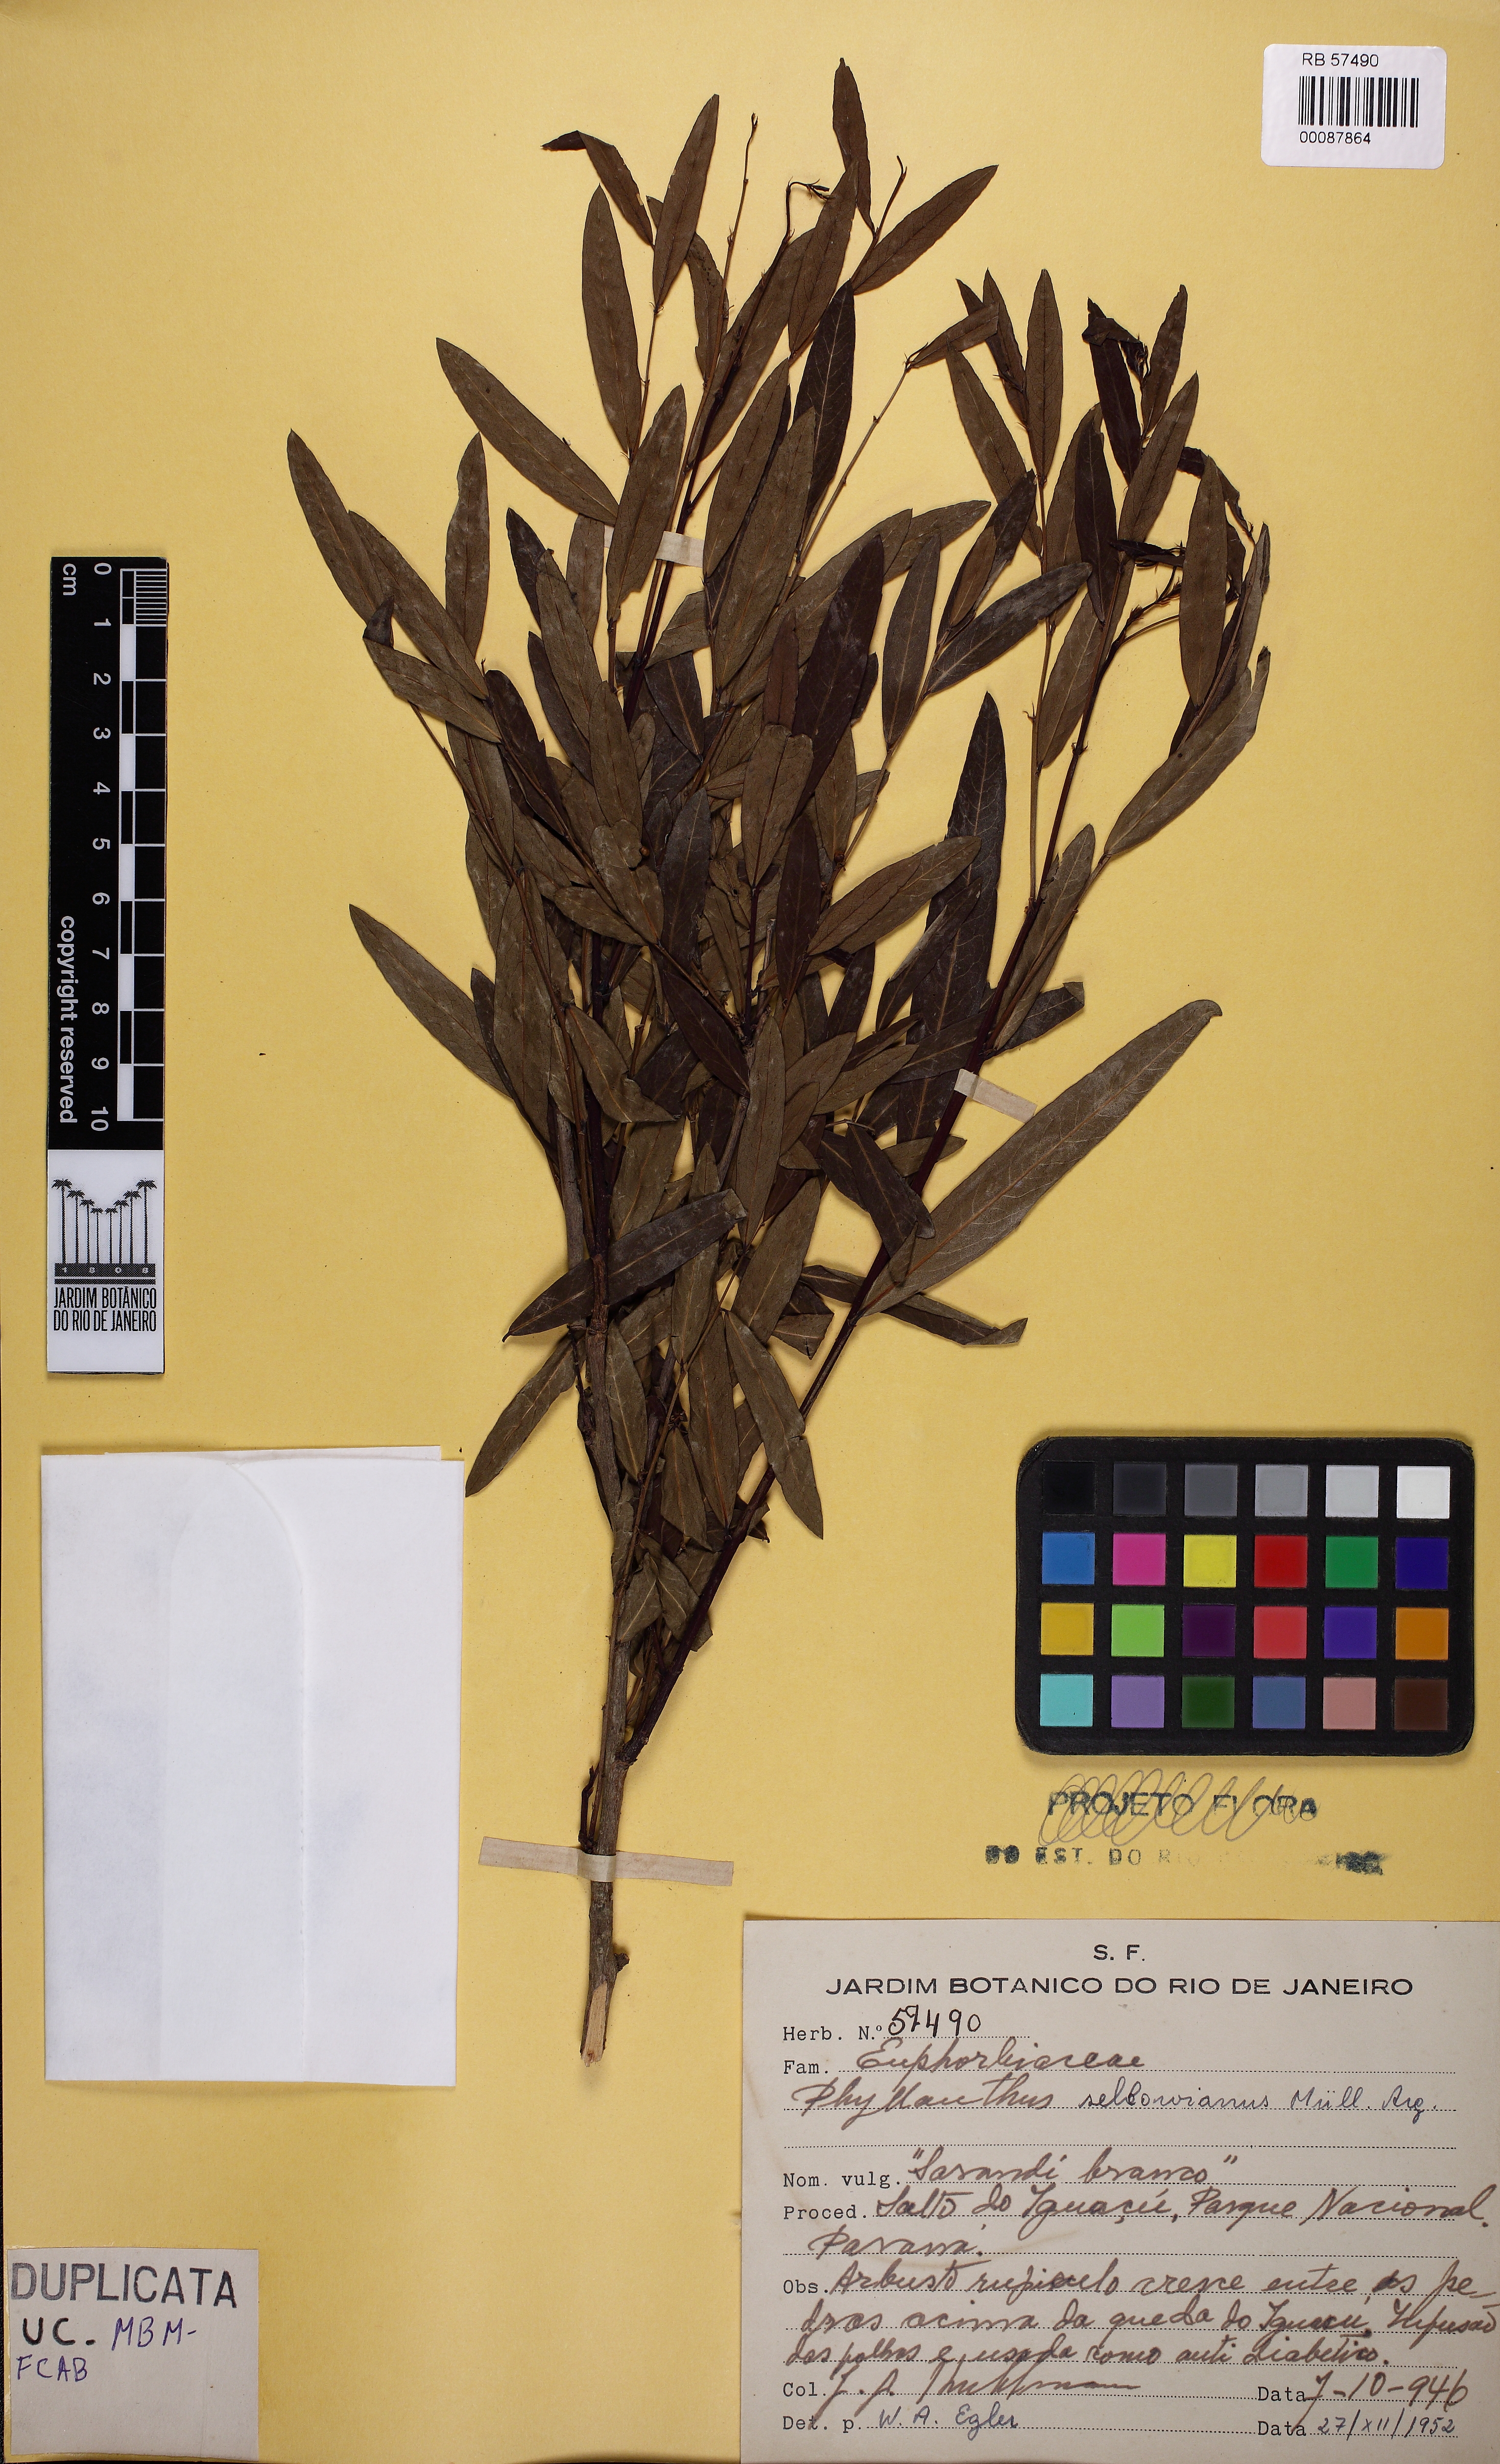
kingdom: Plantae
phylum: Tracheophyta
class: Magnoliopsida
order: Malpighiales
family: Phyllanthaceae
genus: Phyllanthus
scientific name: Phyllanthus sellowianus
